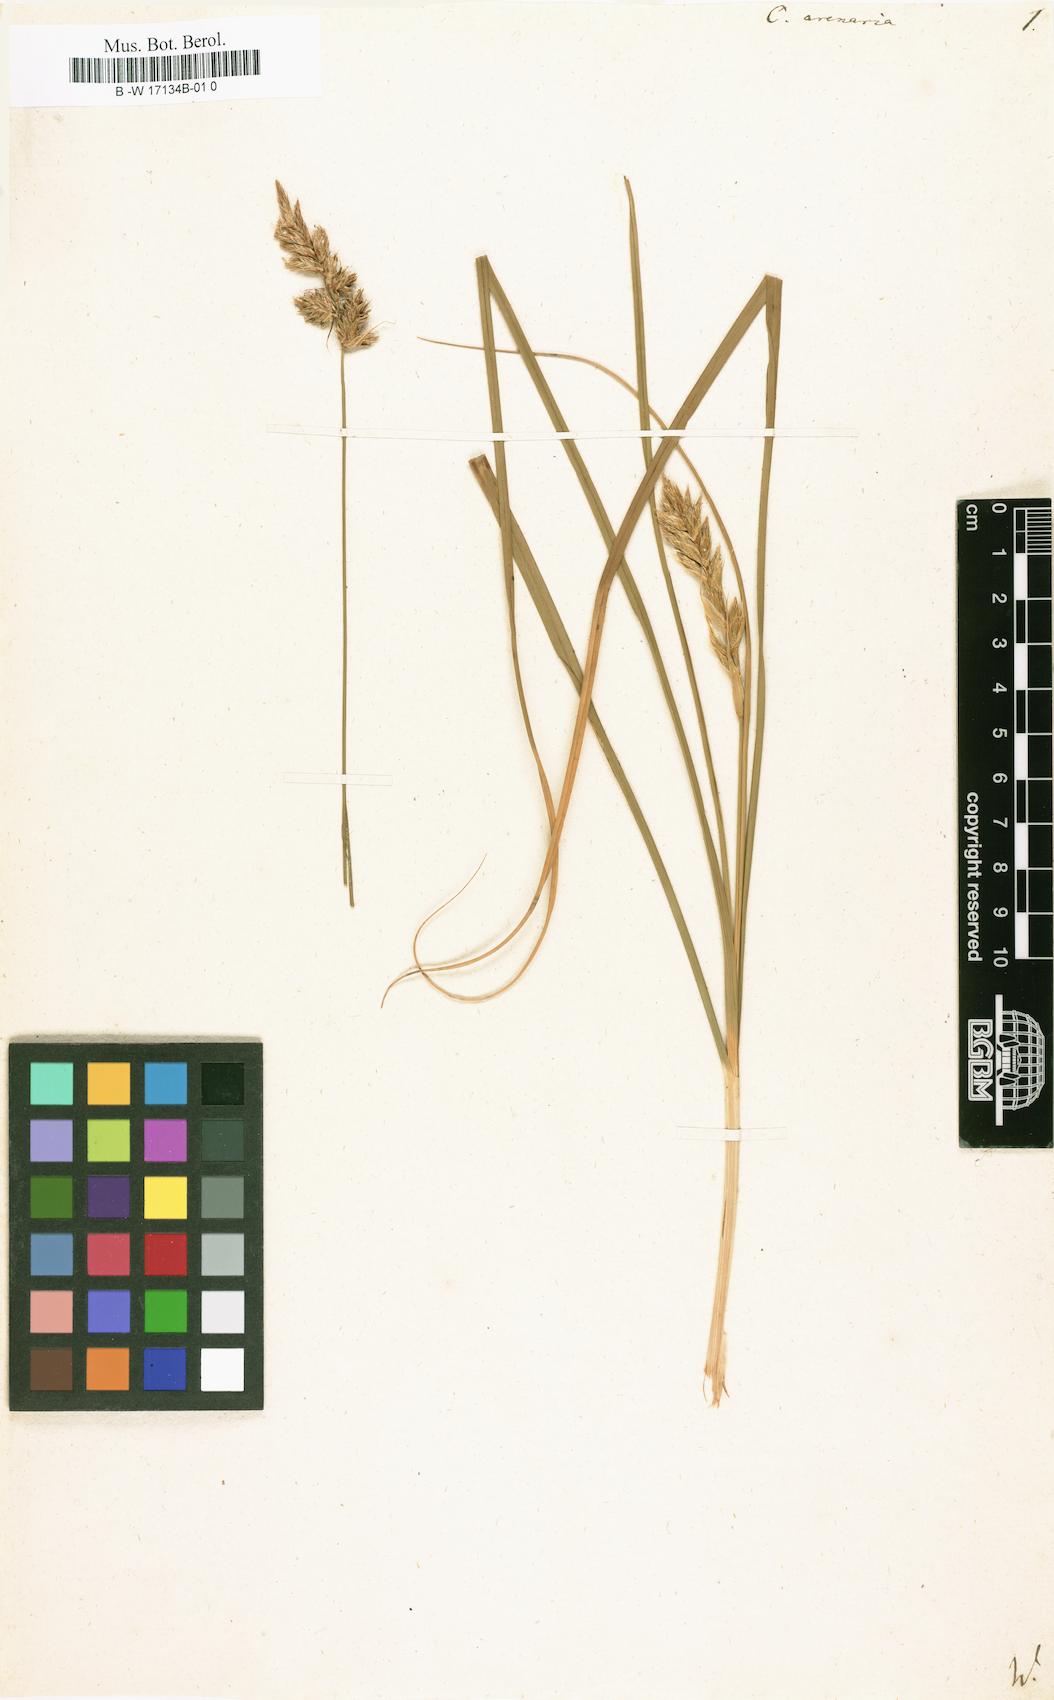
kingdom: Plantae
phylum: Tracheophyta
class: Liliopsida
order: Poales
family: Cyperaceae
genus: Carex
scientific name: Carex arenaria
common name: Sand sedge
